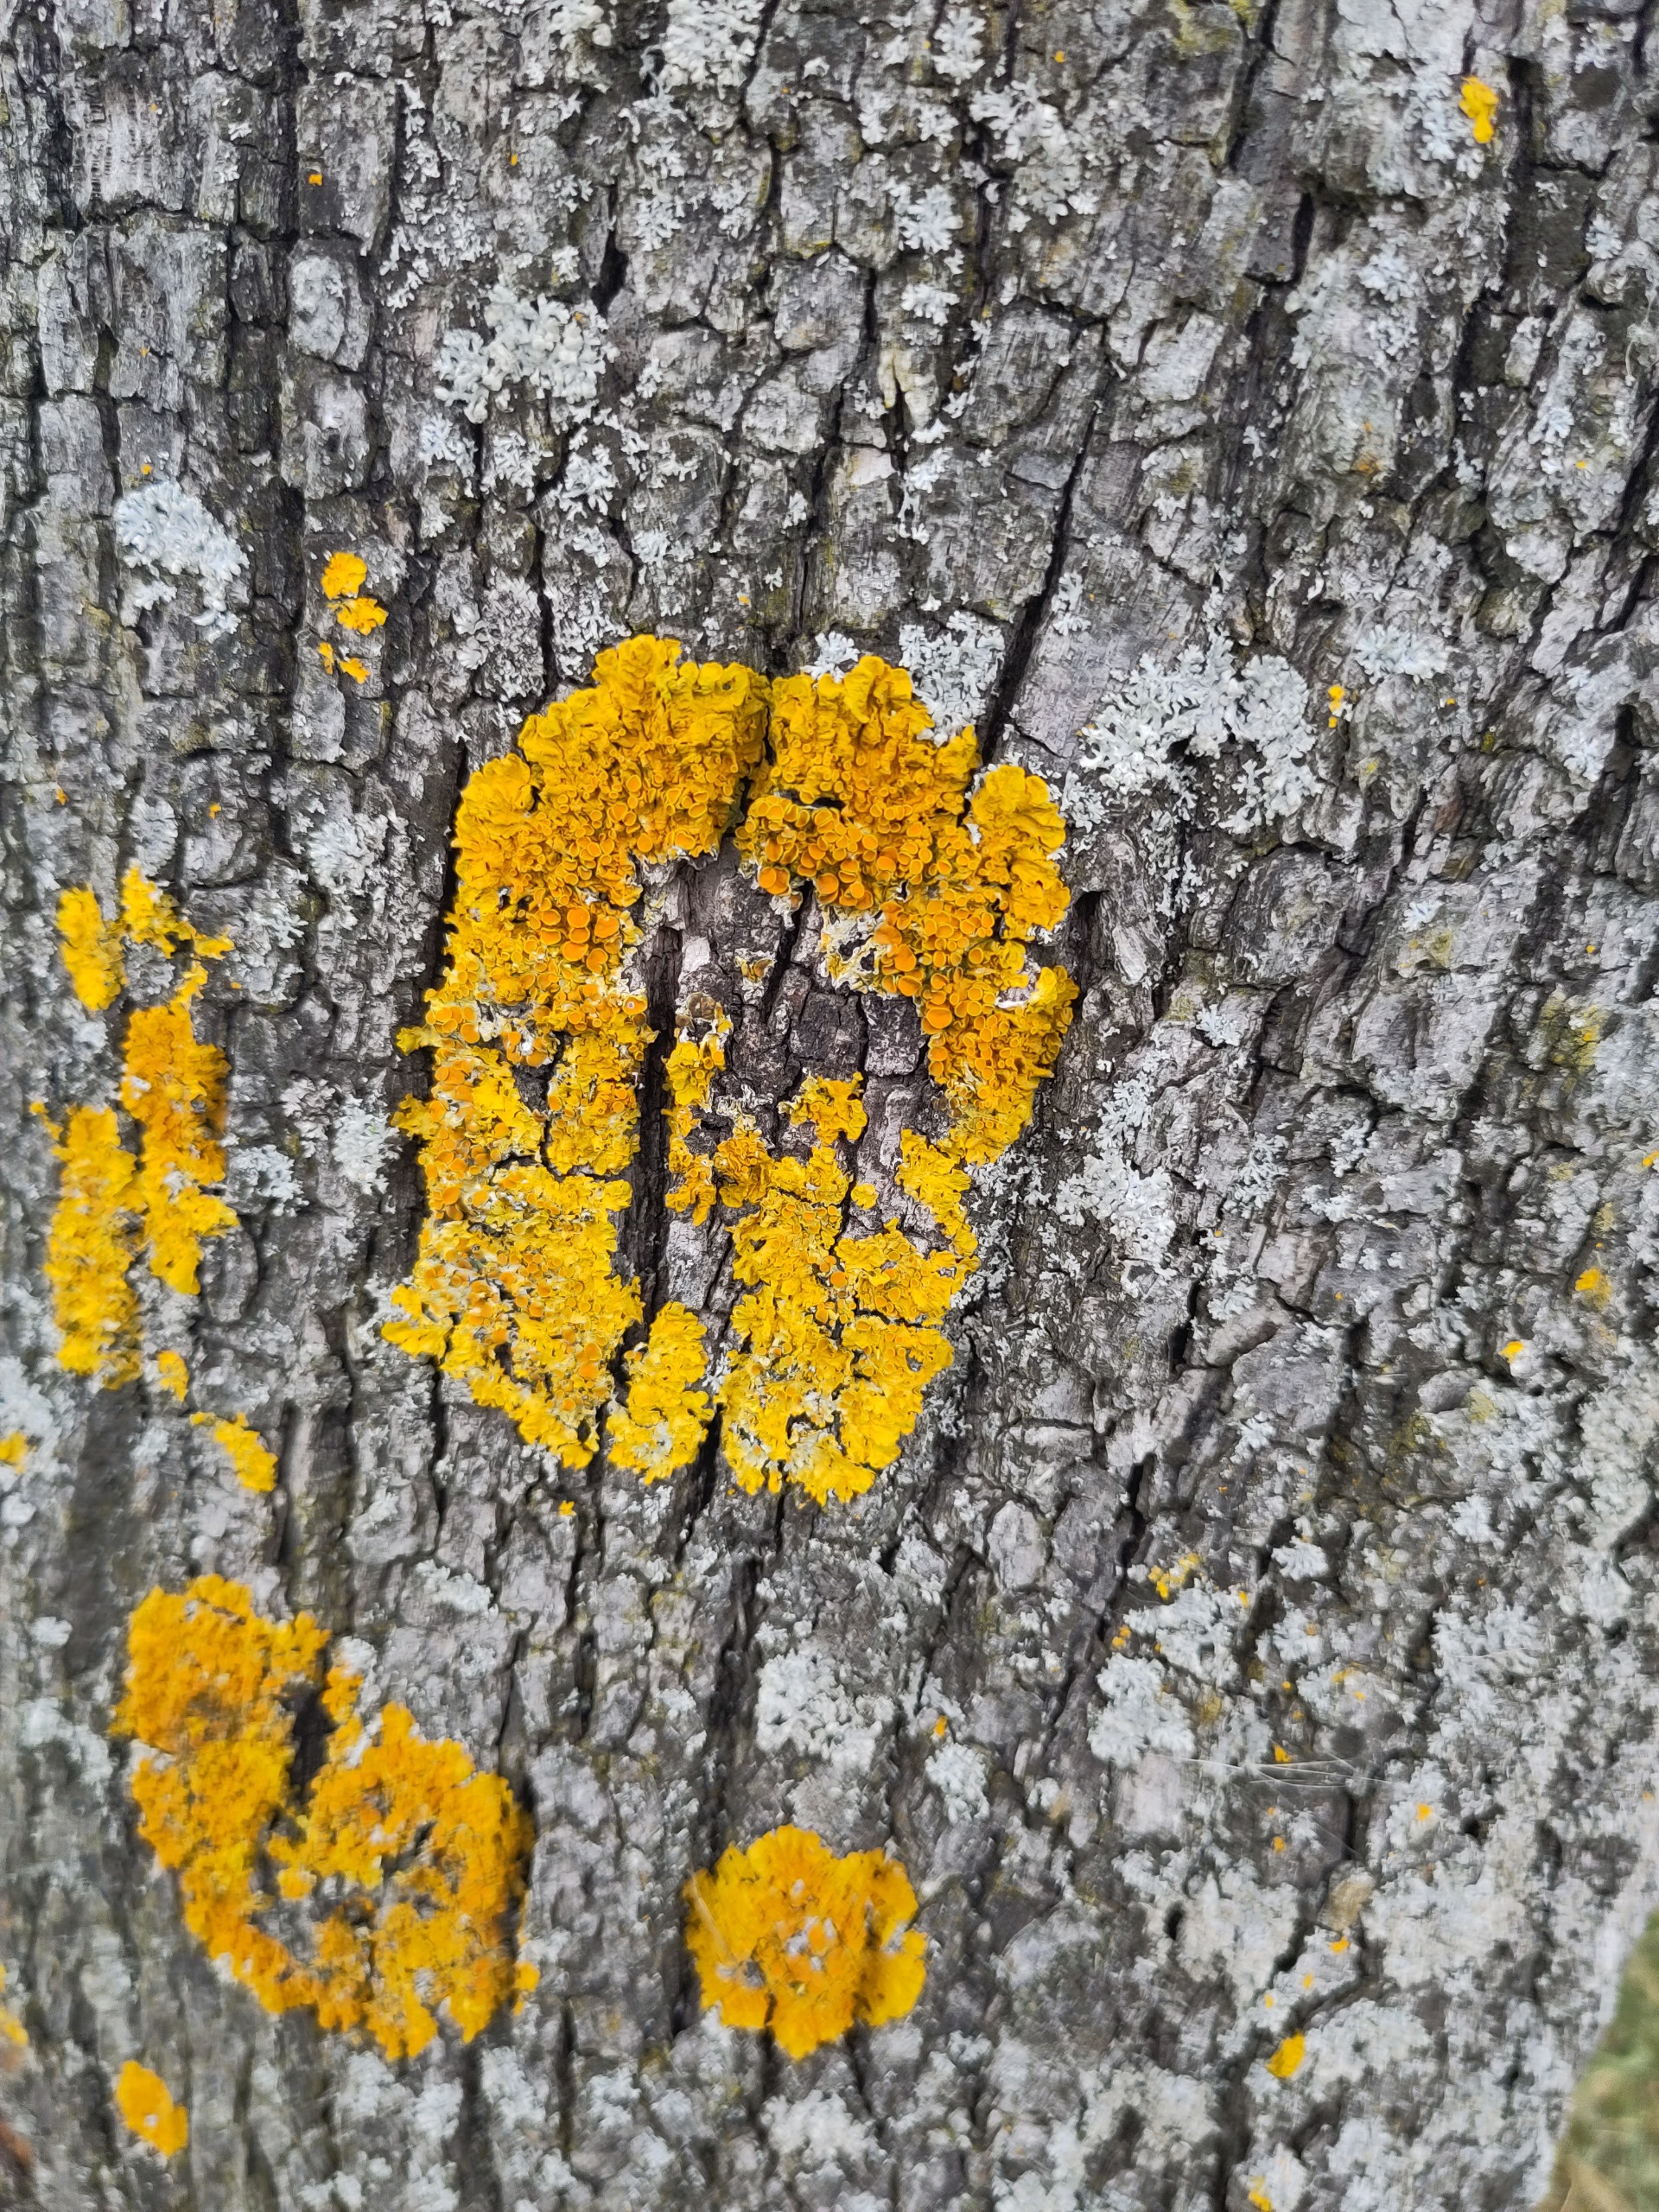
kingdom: Fungi
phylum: Ascomycota
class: Lecanoromycetes
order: Teloschistales
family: Teloschistaceae
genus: Xanthoria
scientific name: Xanthoria parietina
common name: Almindelig væggelav
